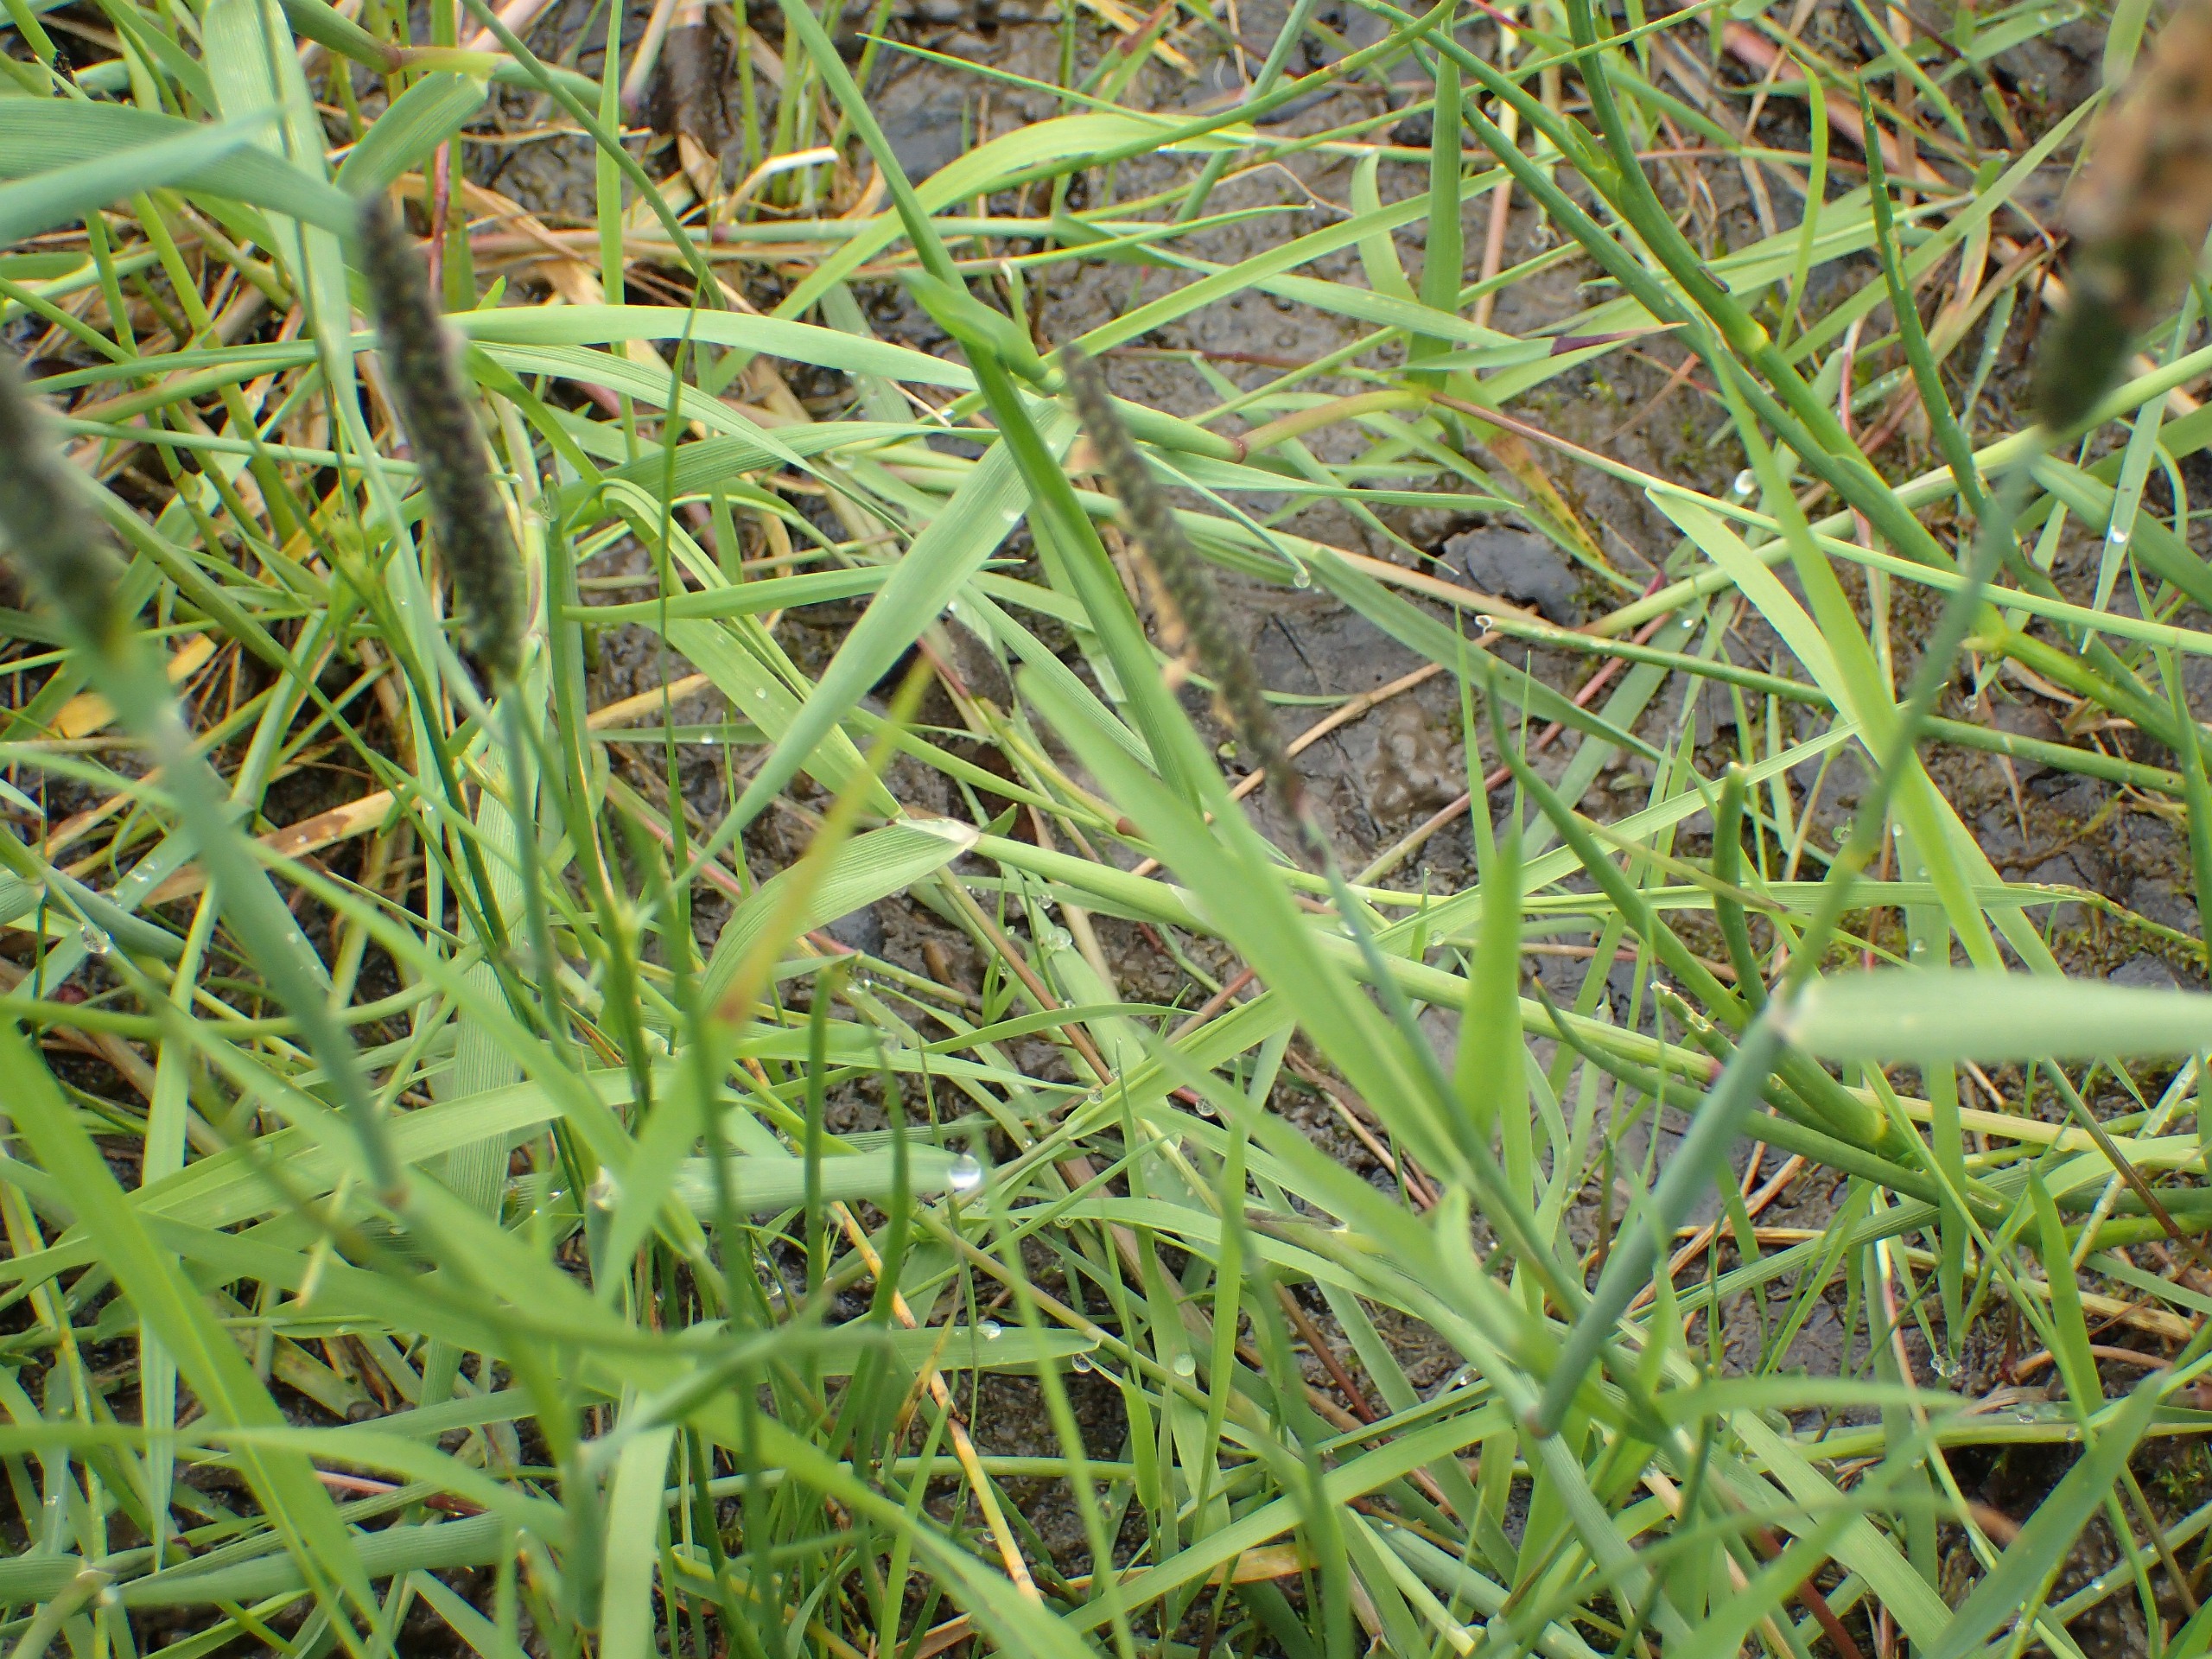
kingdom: Plantae
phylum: Tracheophyta
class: Liliopsida
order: Poales
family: Poaceae
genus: Alopecurus
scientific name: Alopecurus geniculatus
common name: Knæbøjet rævehale
